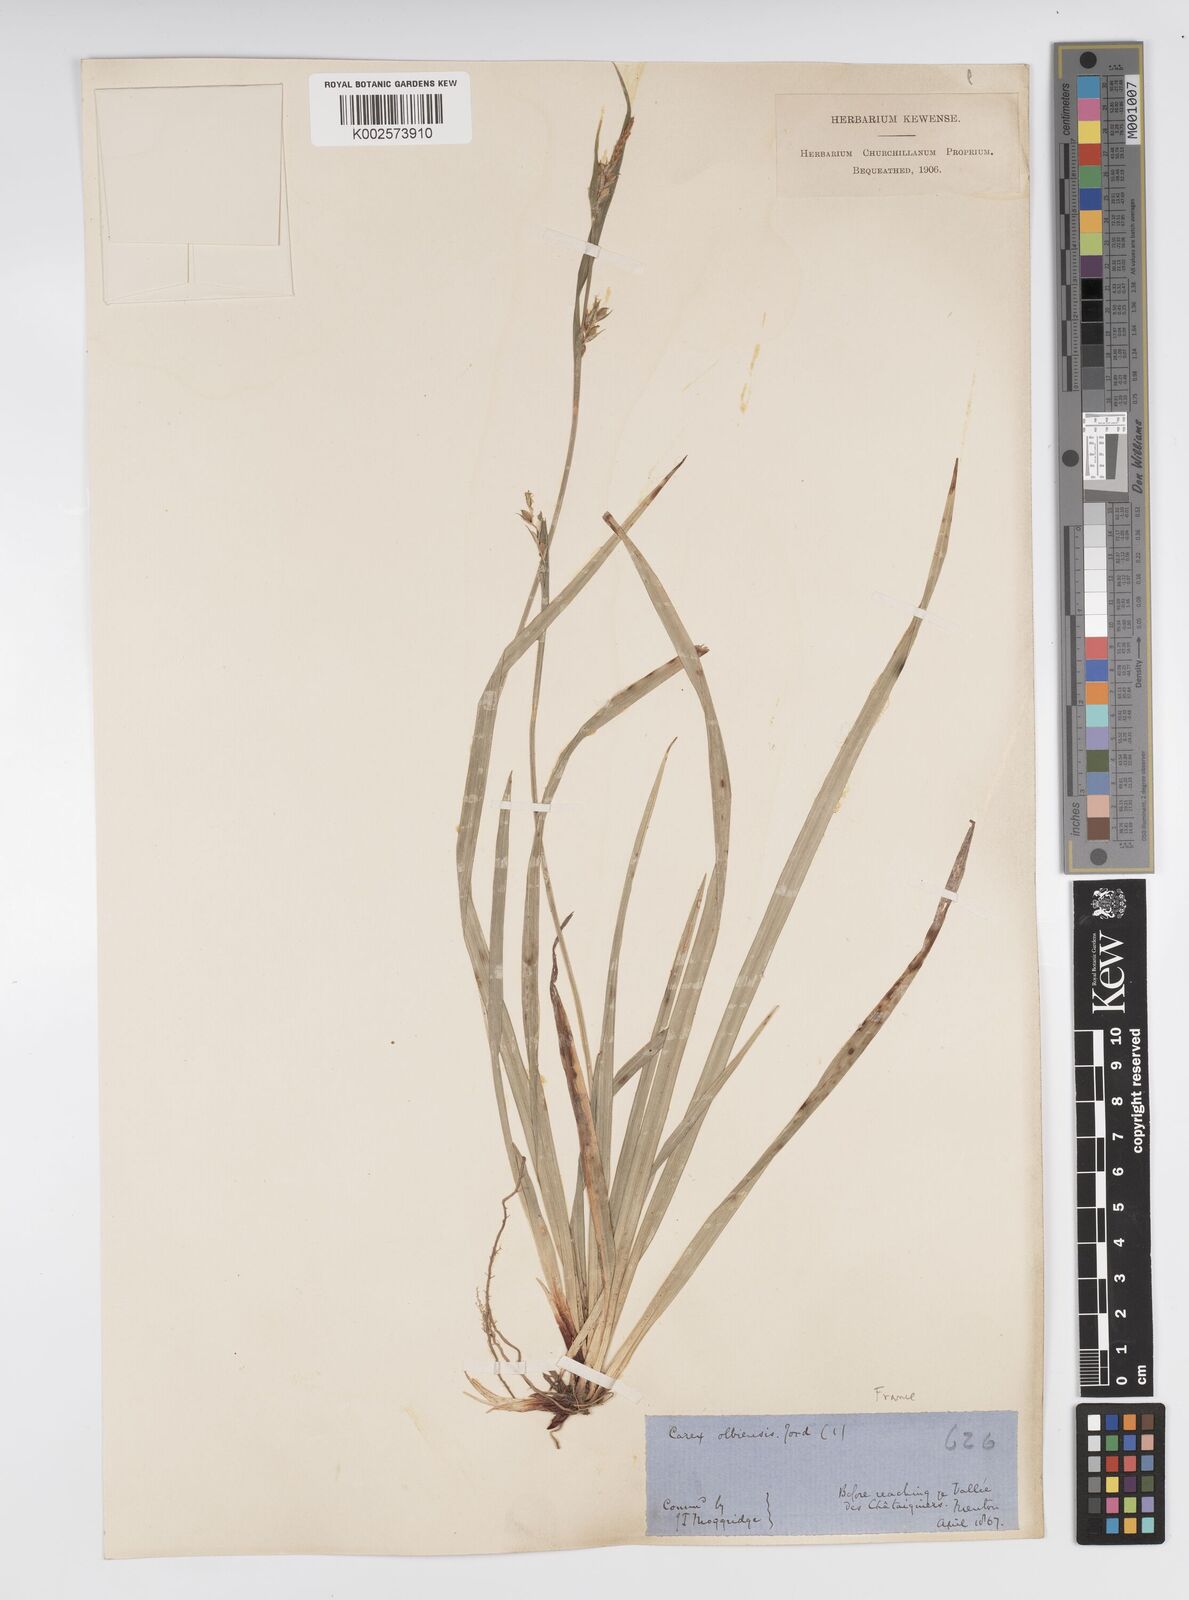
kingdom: Plantae
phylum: Tracheophyta
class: Liliopsida
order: Poales
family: Cyperaceae
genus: Carex
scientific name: Carex olbiensis
